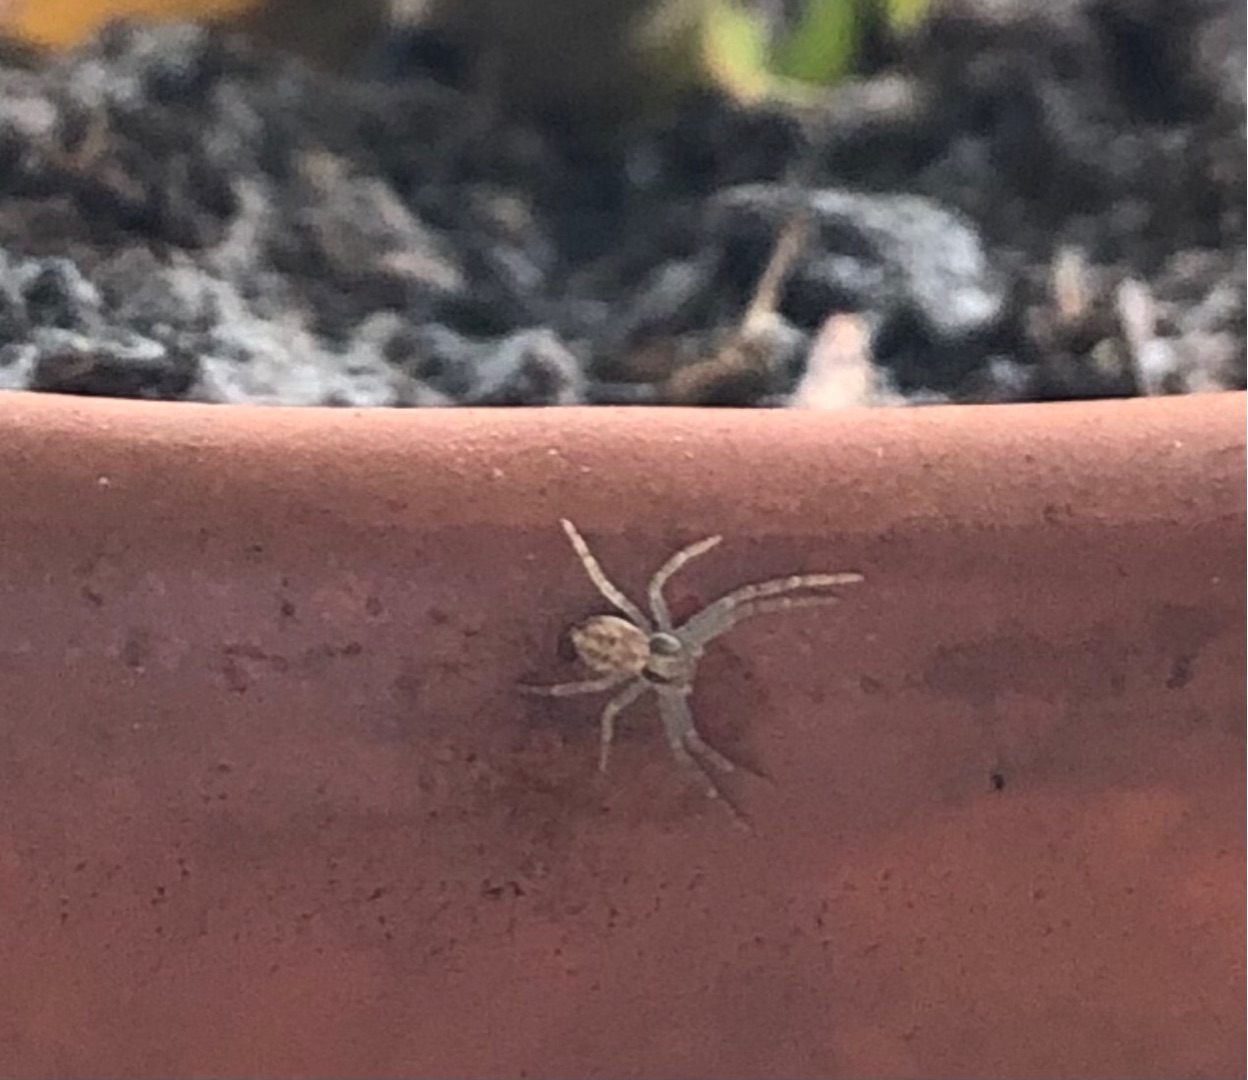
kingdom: Animalia
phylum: Arthropoda
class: Arachnida
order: Araneae
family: Philodromidae
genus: Philodromus
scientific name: Philodromus dispar
